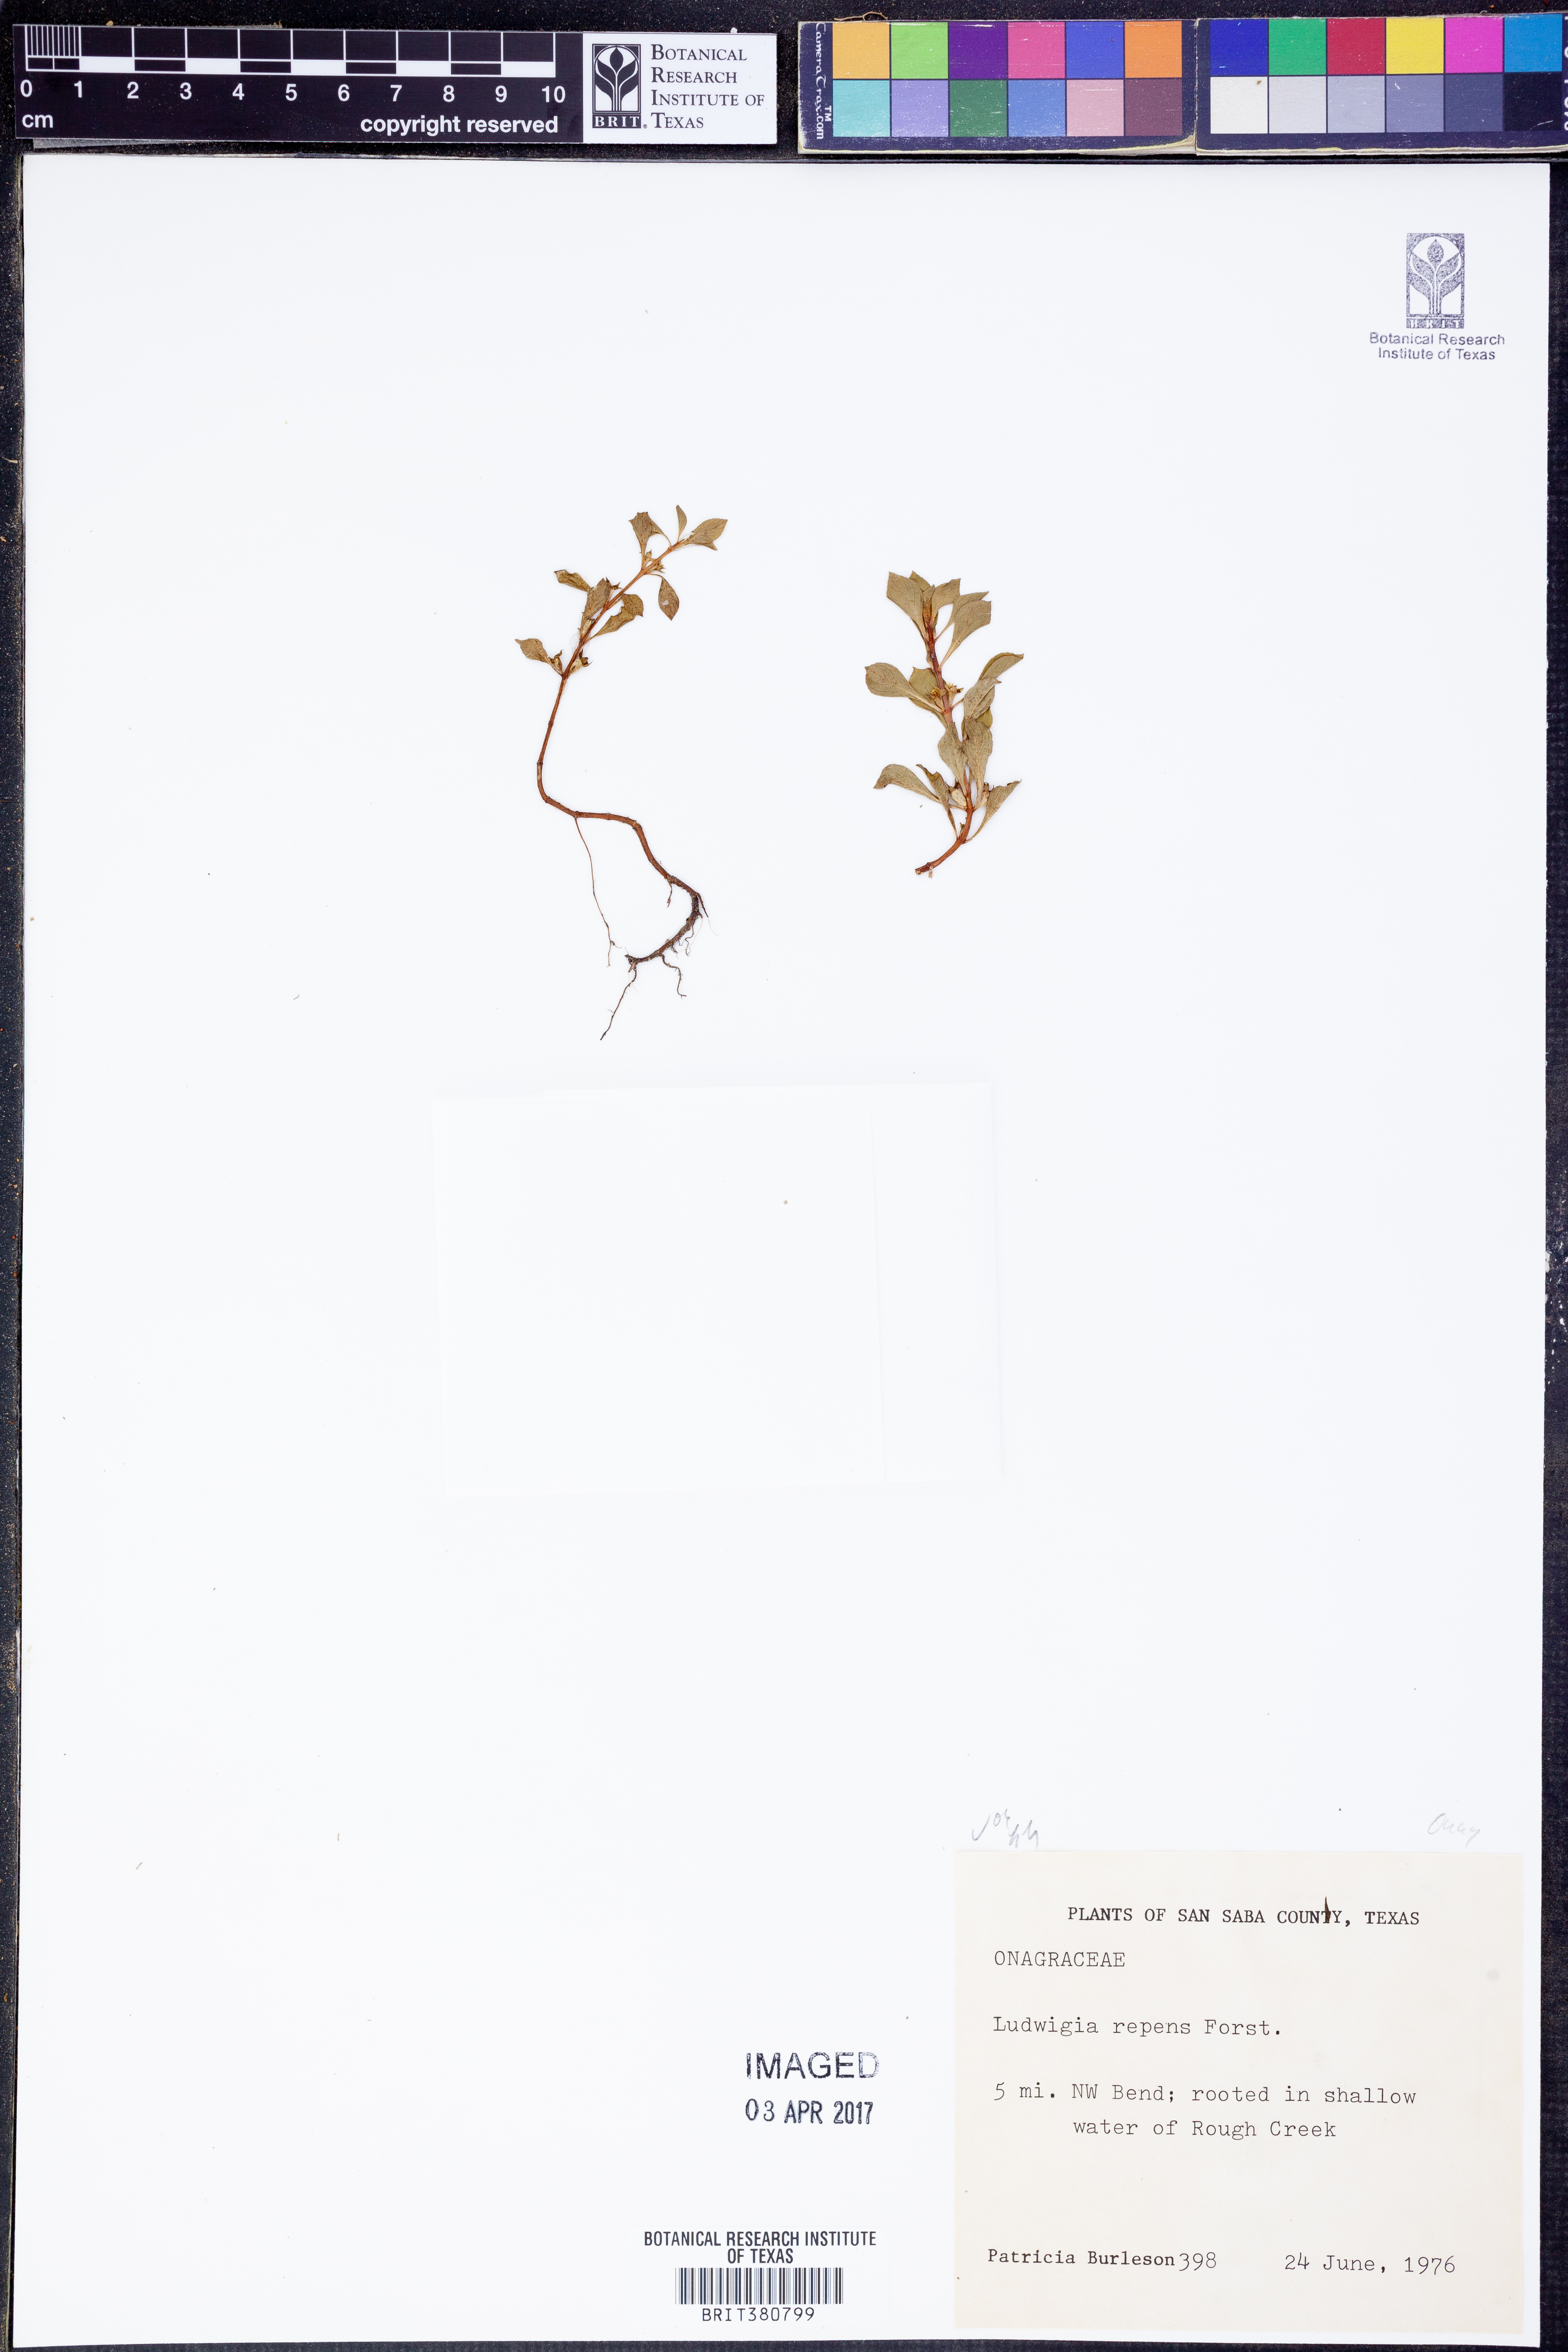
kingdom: Plantae
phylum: Tracheophyta
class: Magnoliopsida
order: Myrtales
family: Onagraceae
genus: Ludwigia
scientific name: Ludwigia repens
